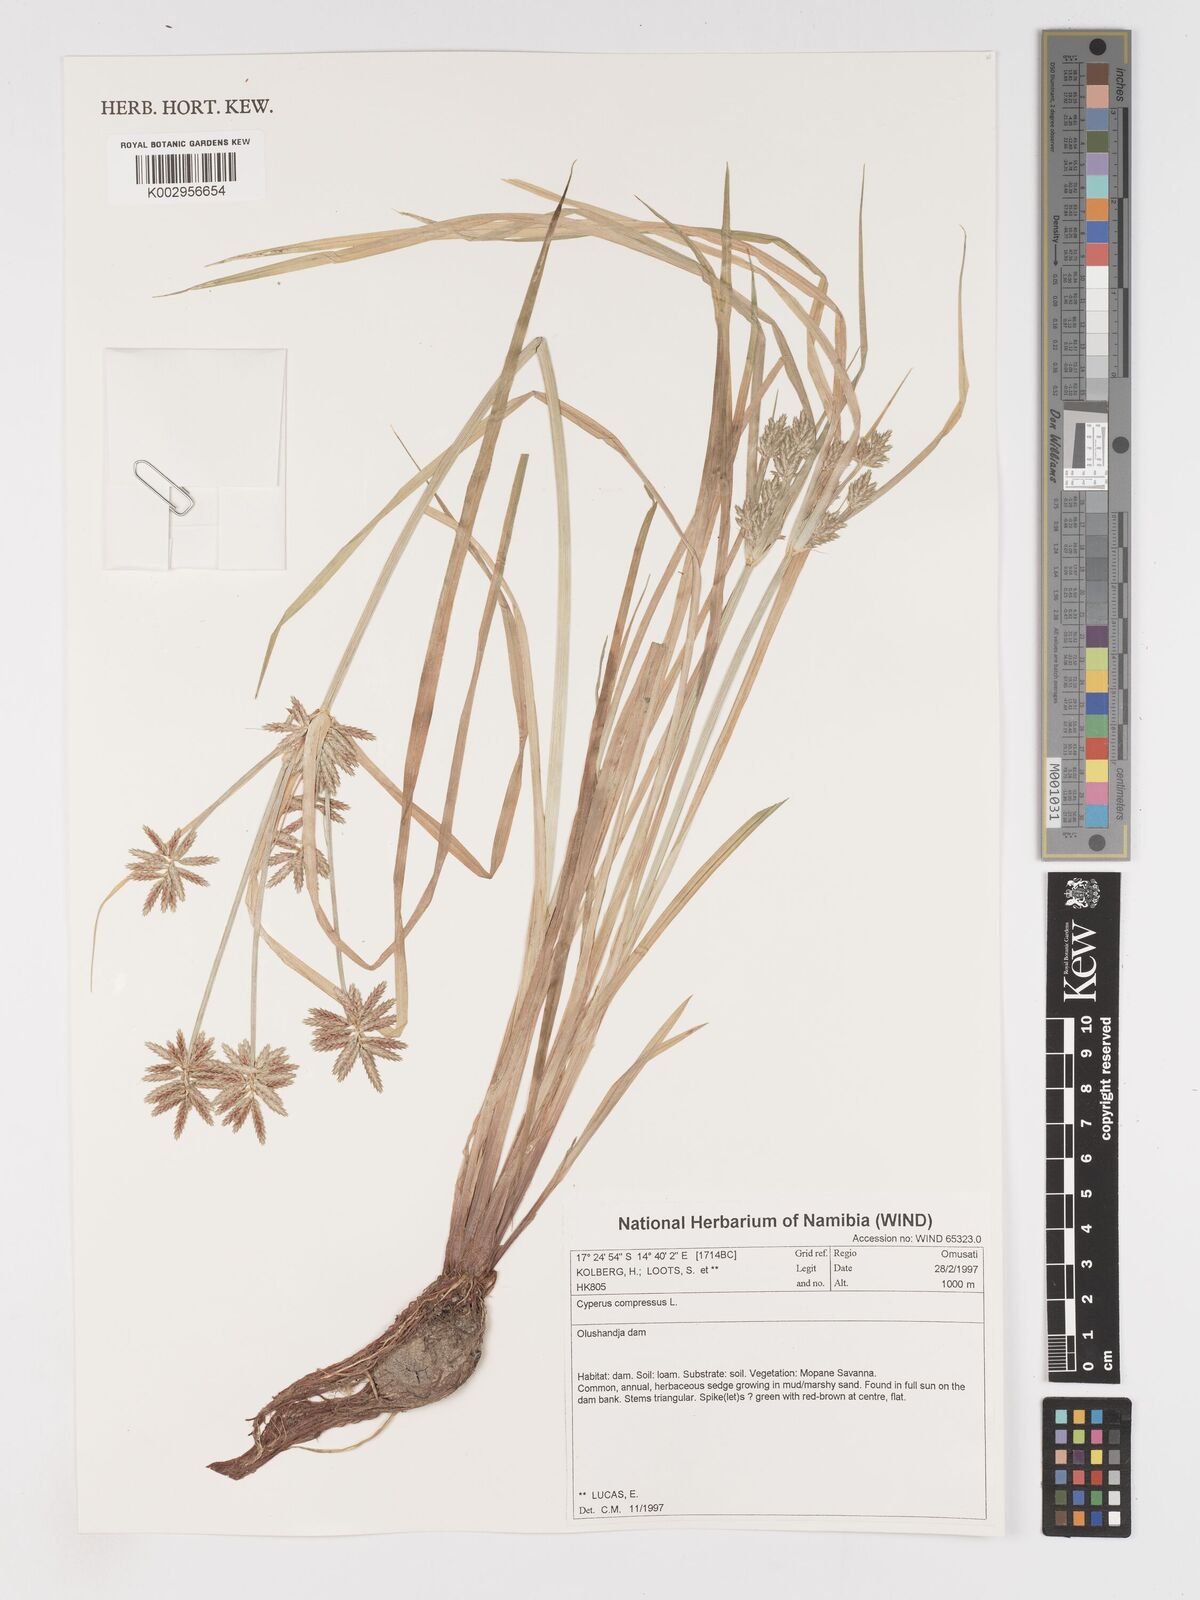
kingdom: Plantae
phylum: Tracheophyta
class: Liliopsida
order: Poales
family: Cyperaceae
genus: Cyperus
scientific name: Cyperus compressus
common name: Poorland flatsedge
